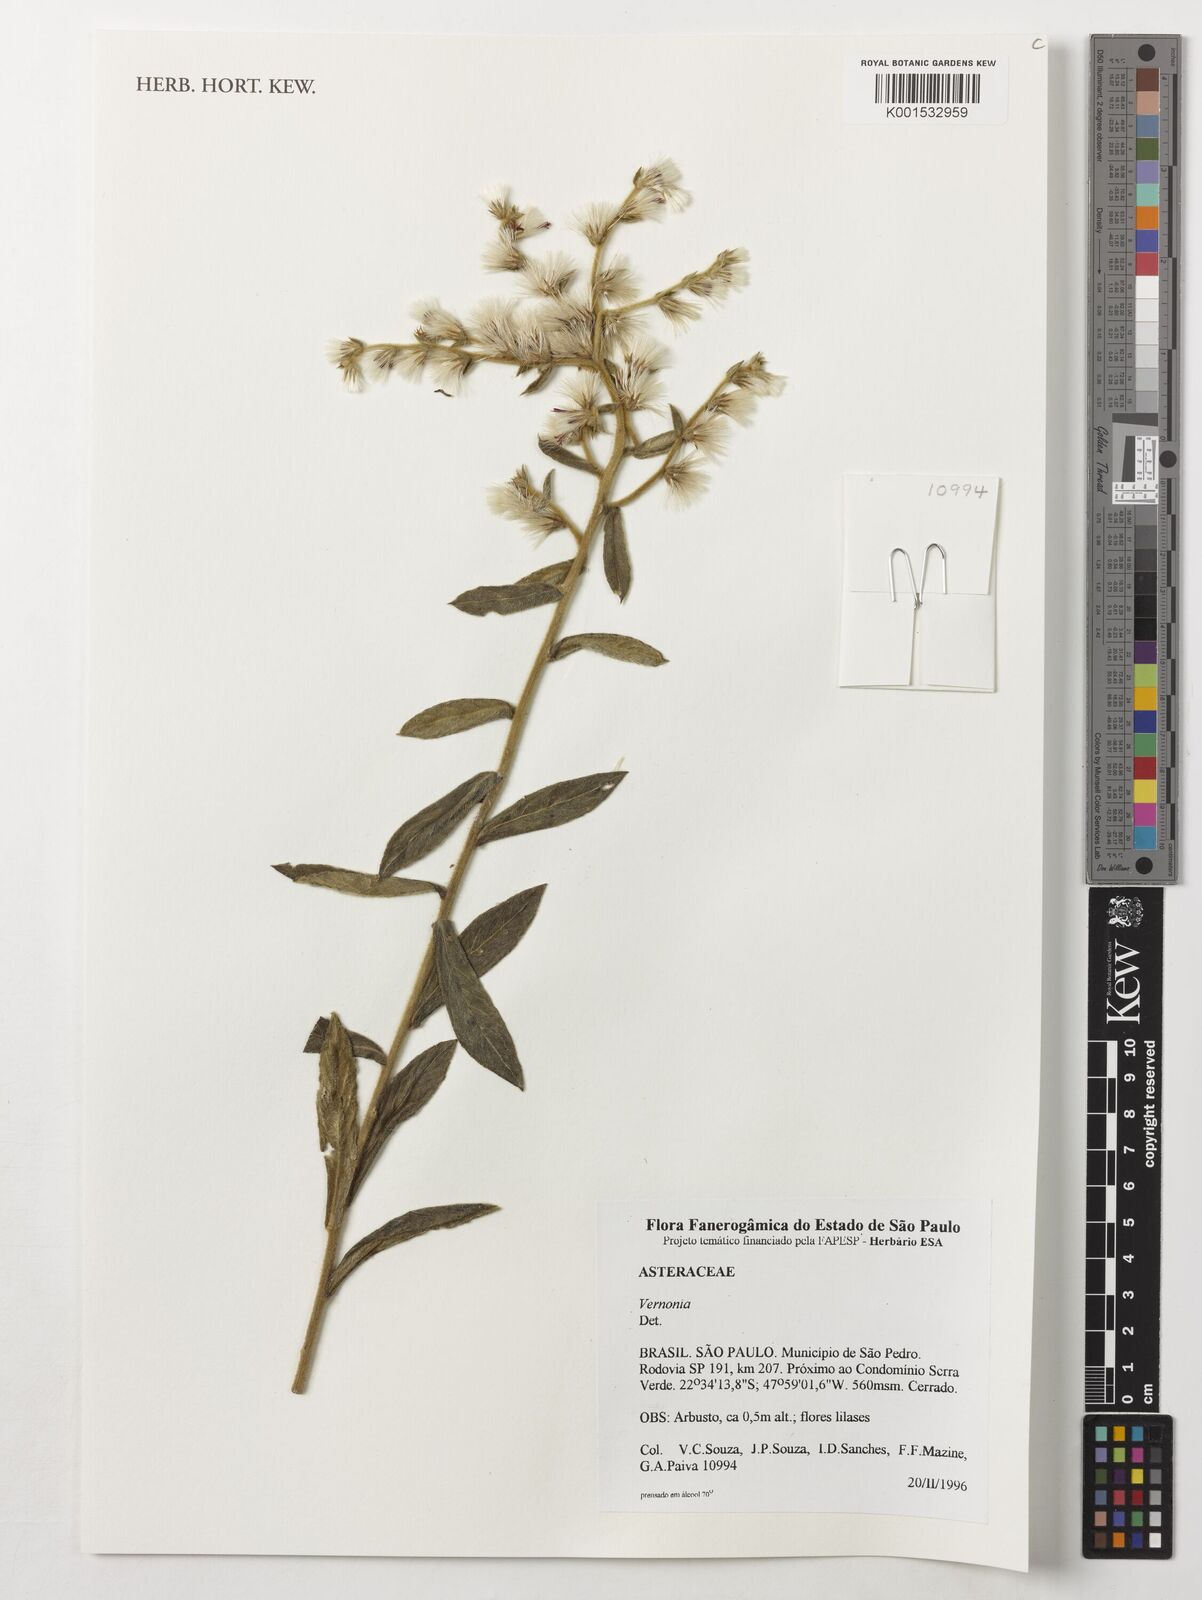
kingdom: Plantae
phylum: Tracheophyta
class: Magnoliopsida
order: Asterales
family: Asteraceae
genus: Vernonia
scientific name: Vernonia
